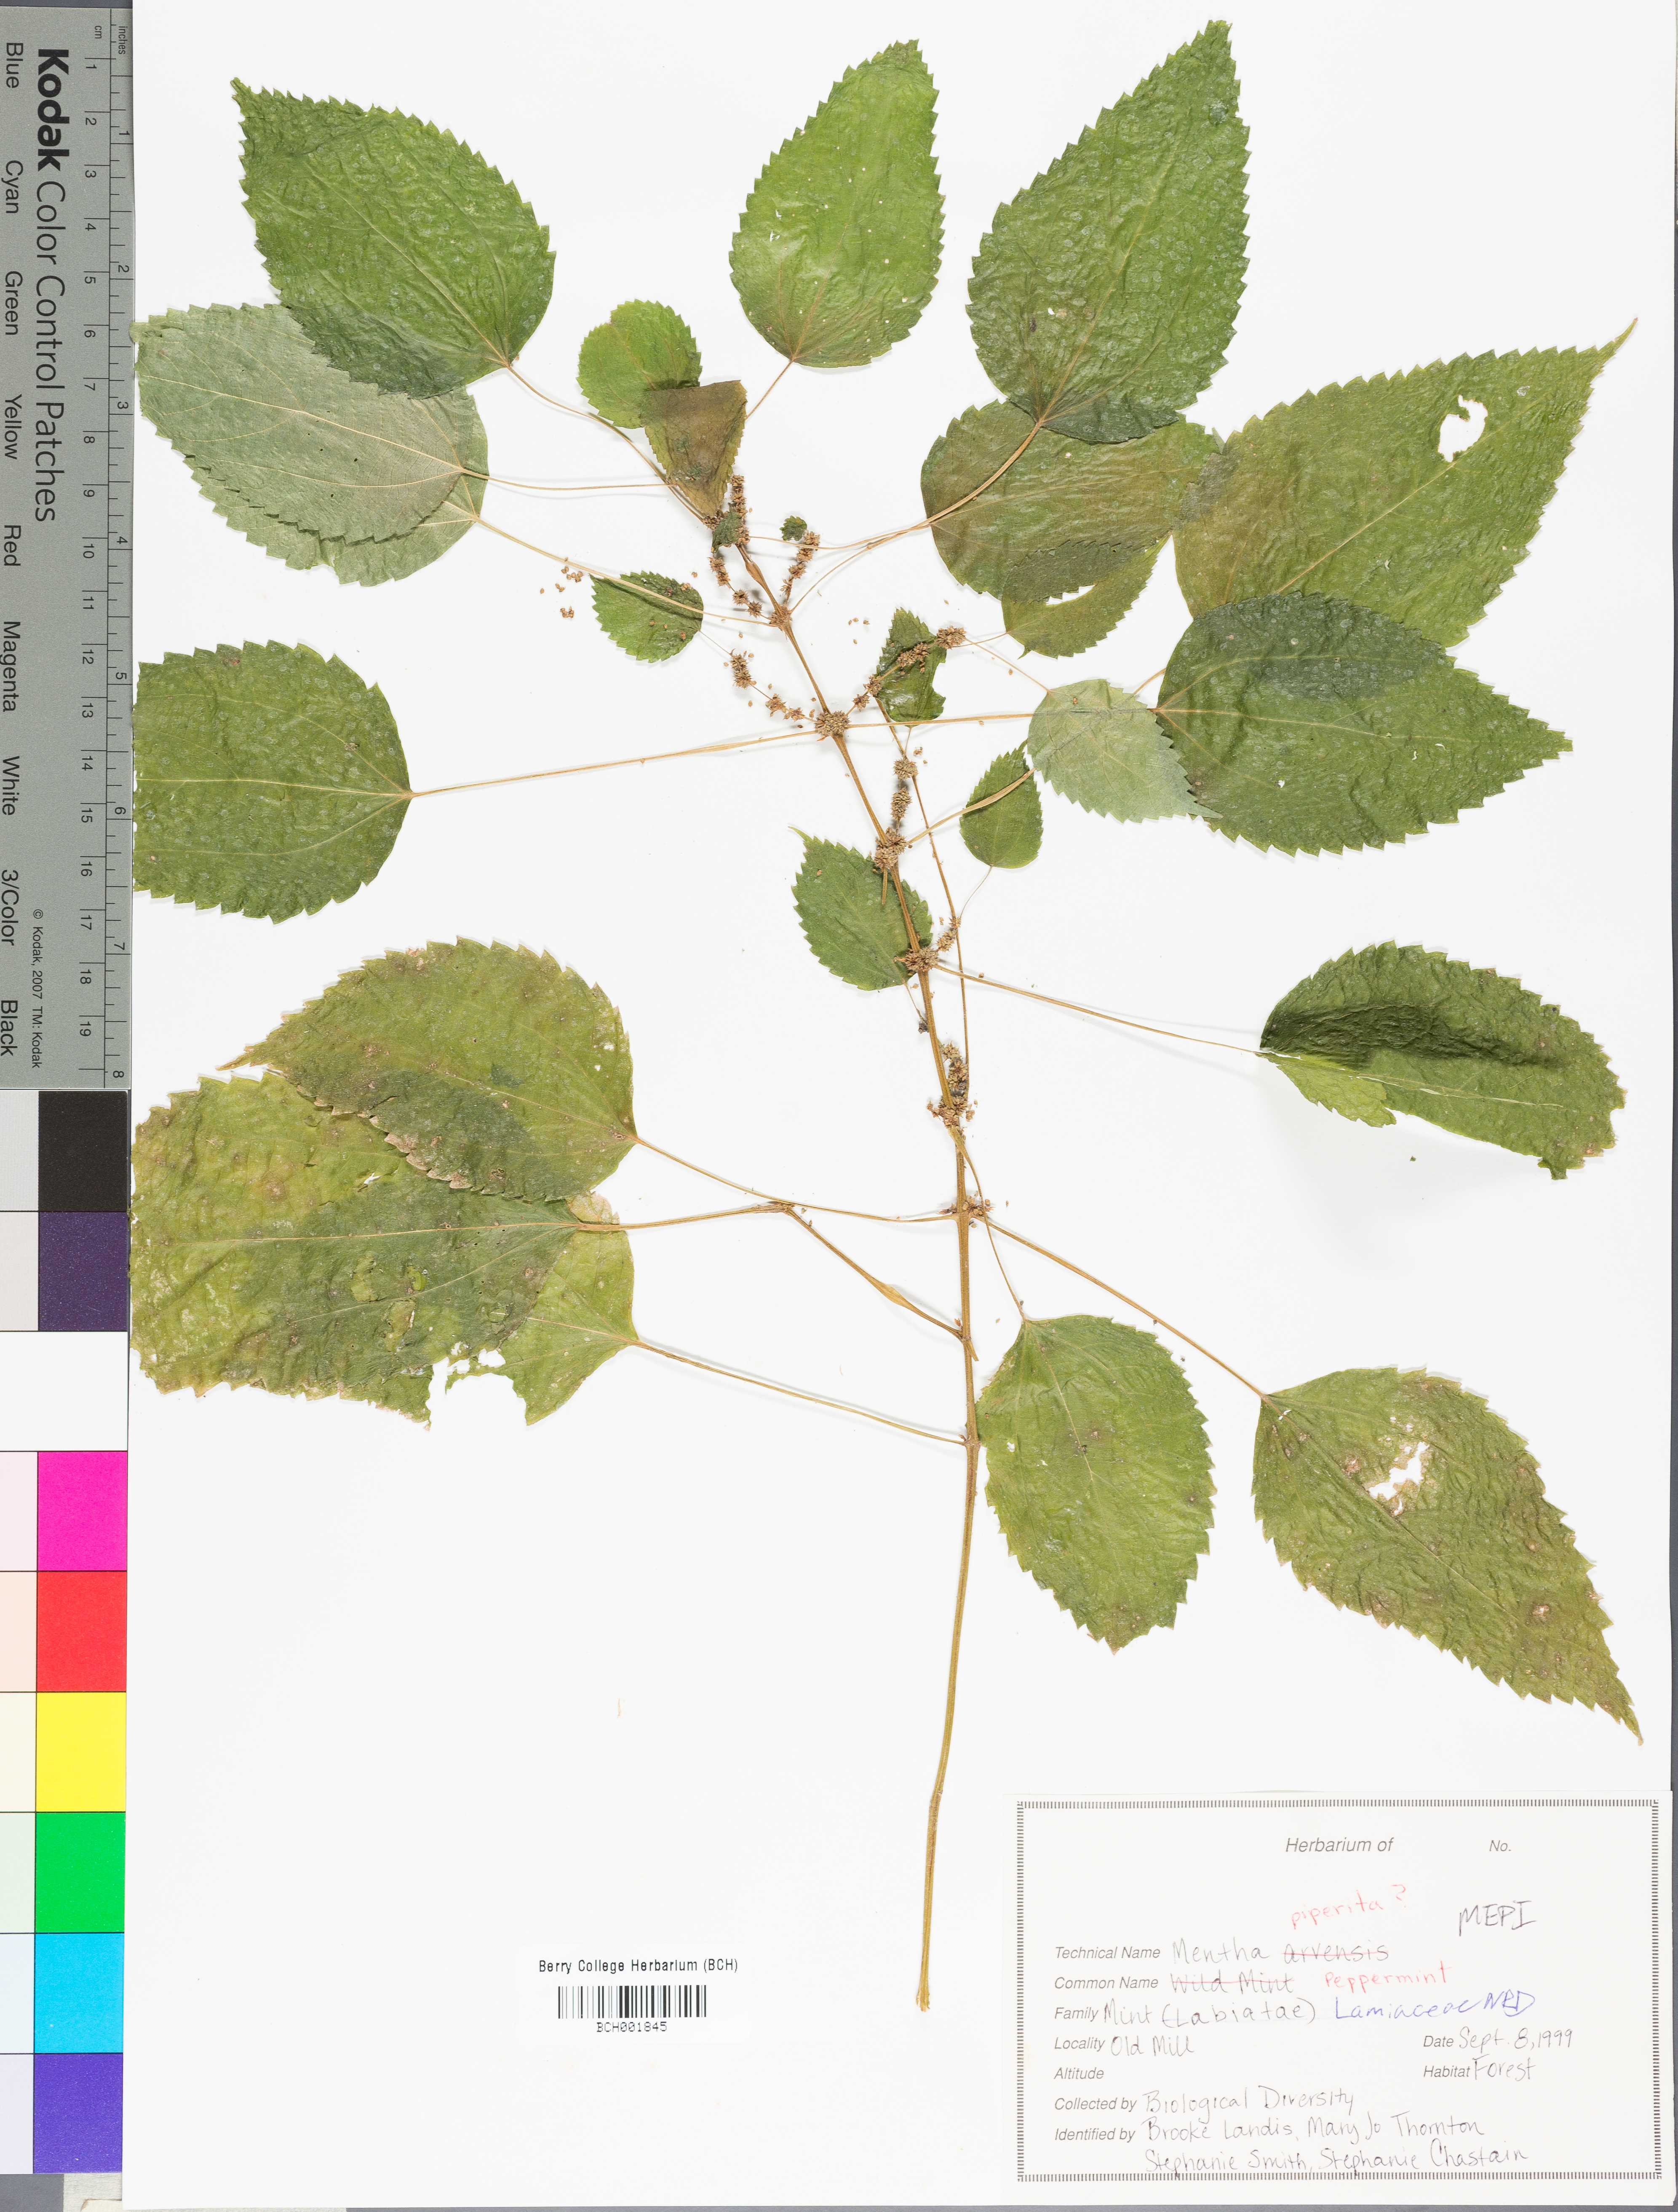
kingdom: Plantae
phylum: Tracheophyta
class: Magnoliopsida
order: Lamiales
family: Lamiaceae
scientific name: Lamiaceae
